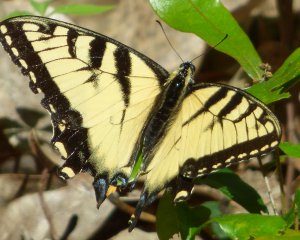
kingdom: Animalia
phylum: Arthropoda
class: Insecta
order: Lepidoptera
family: Papilionidae
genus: Pterourus
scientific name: Pterourus glaucus
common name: Eastern Tiger Swallowtail
